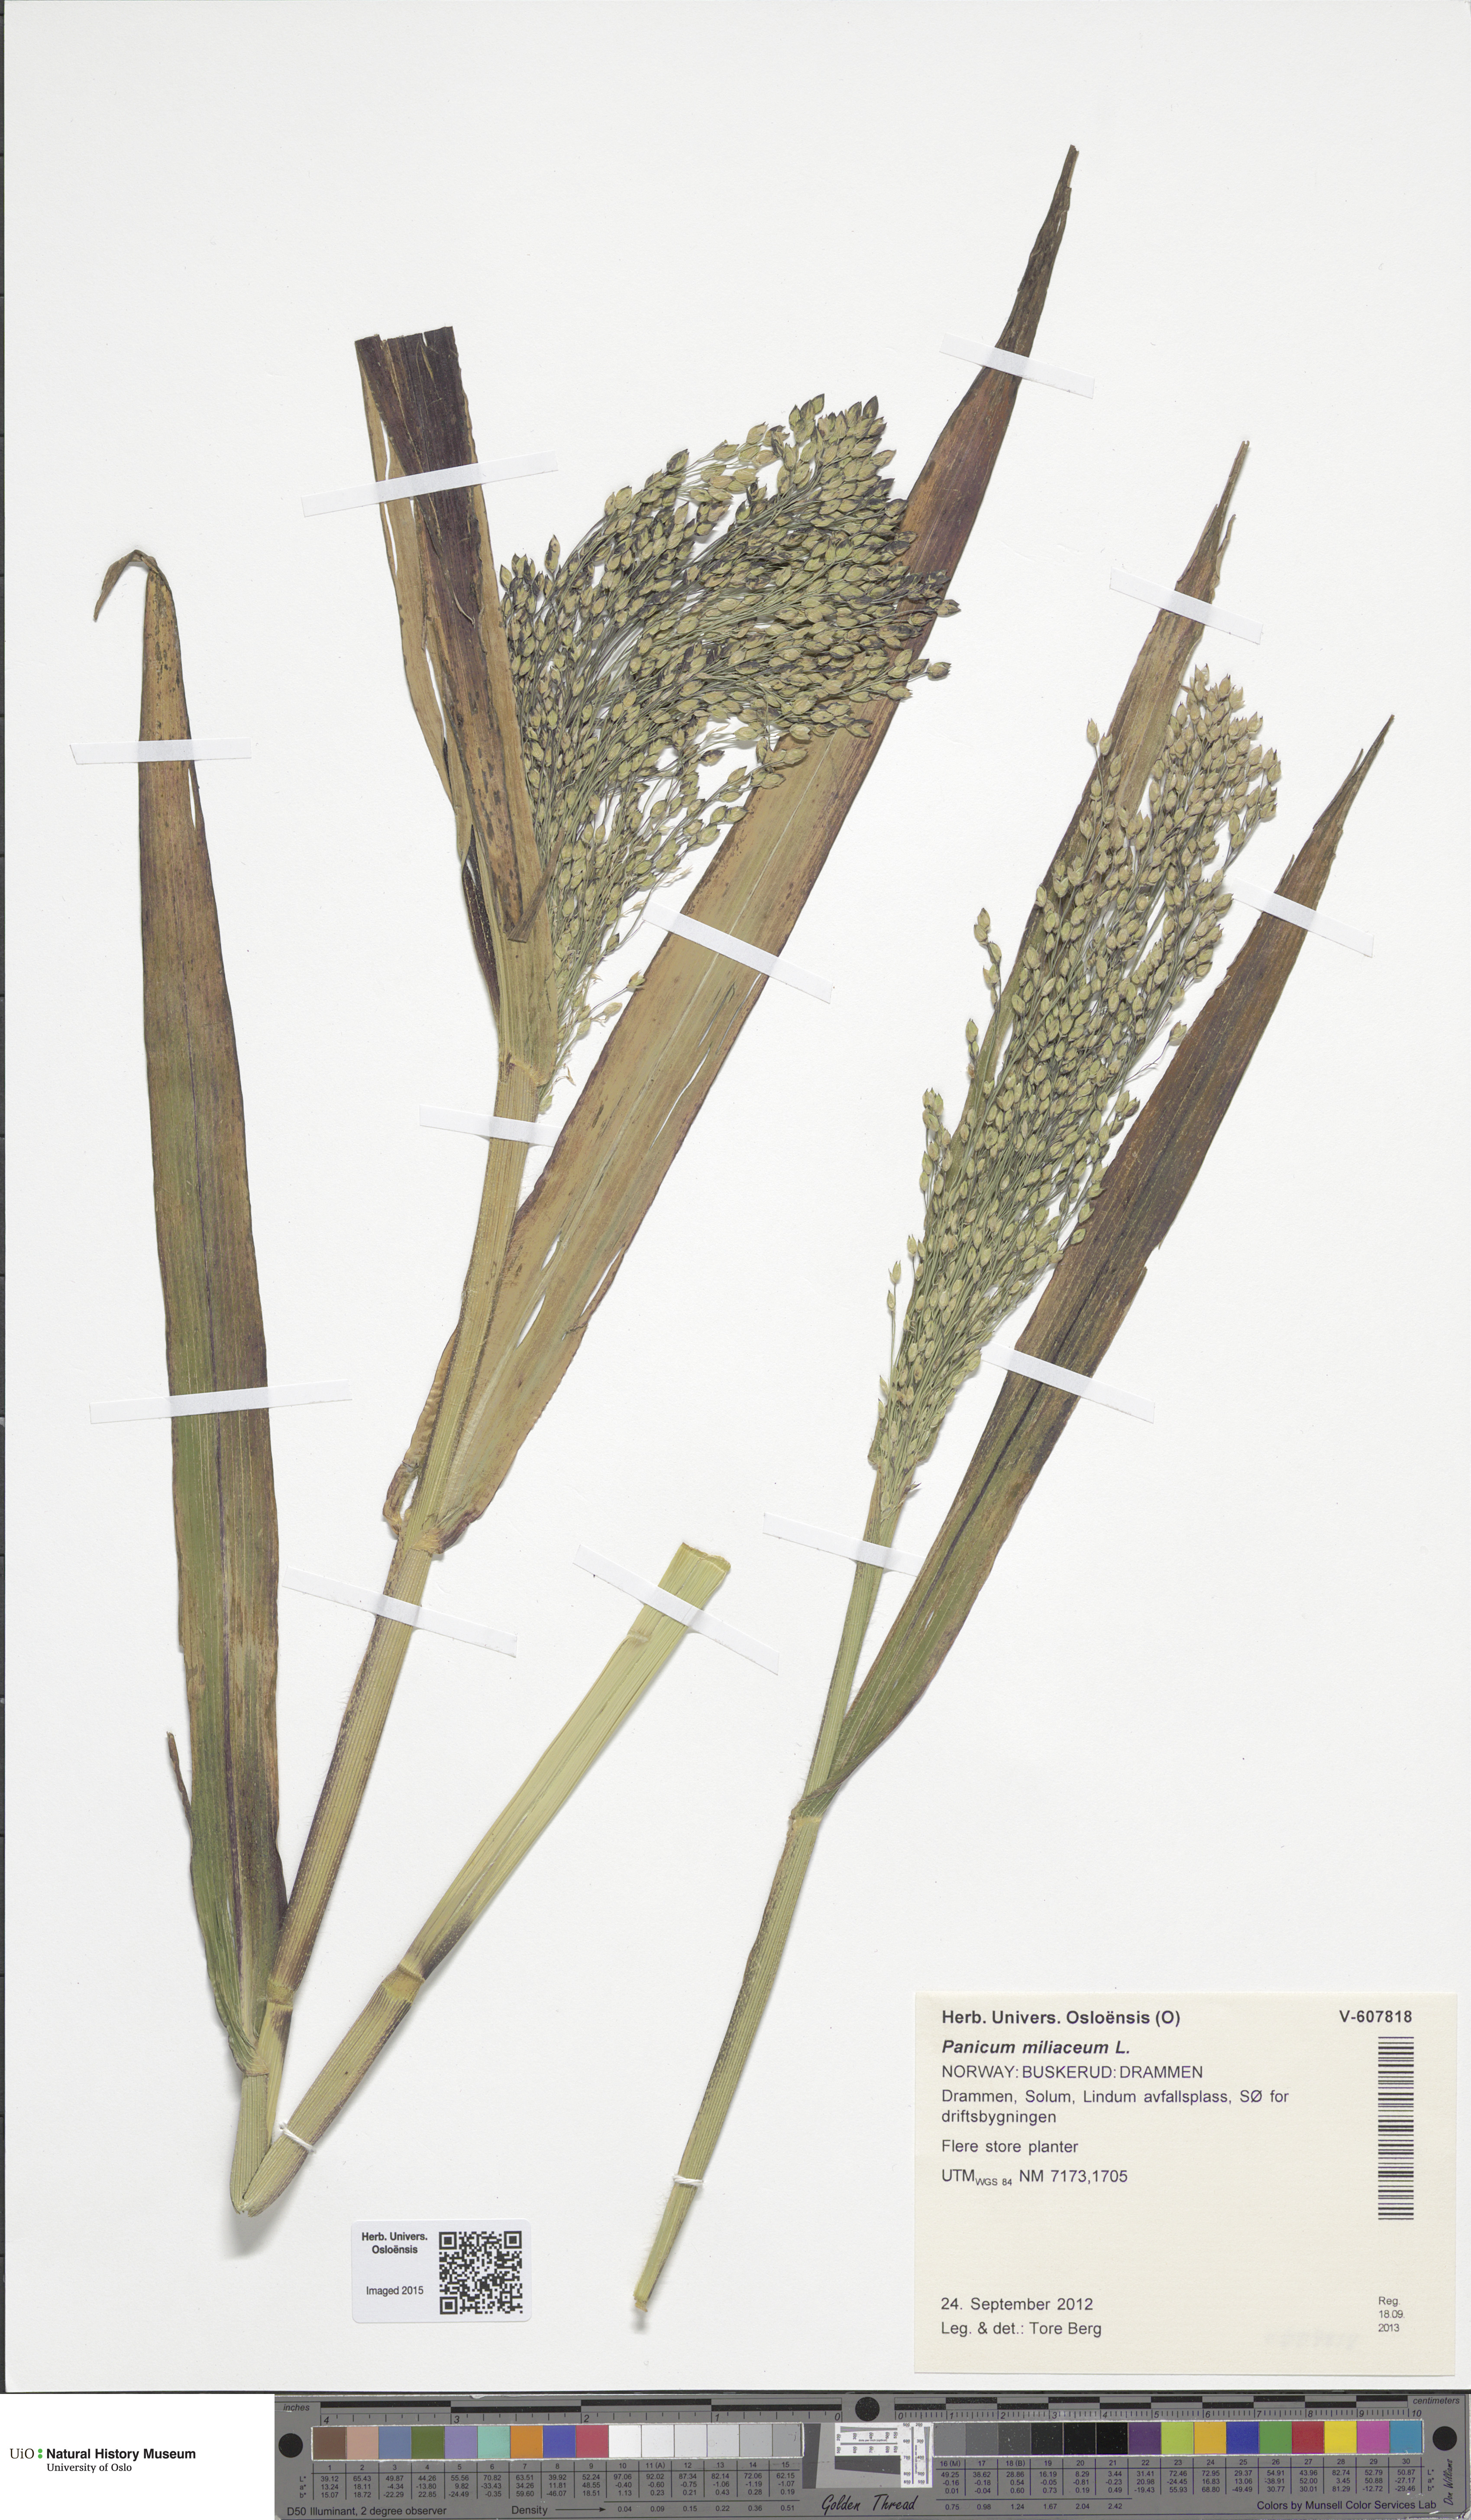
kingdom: Plantae
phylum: Tracheophyta
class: Liliopsida
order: Poales
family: Poaceae
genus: Panicum
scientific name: Panicum miliaceum
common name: Common millet
